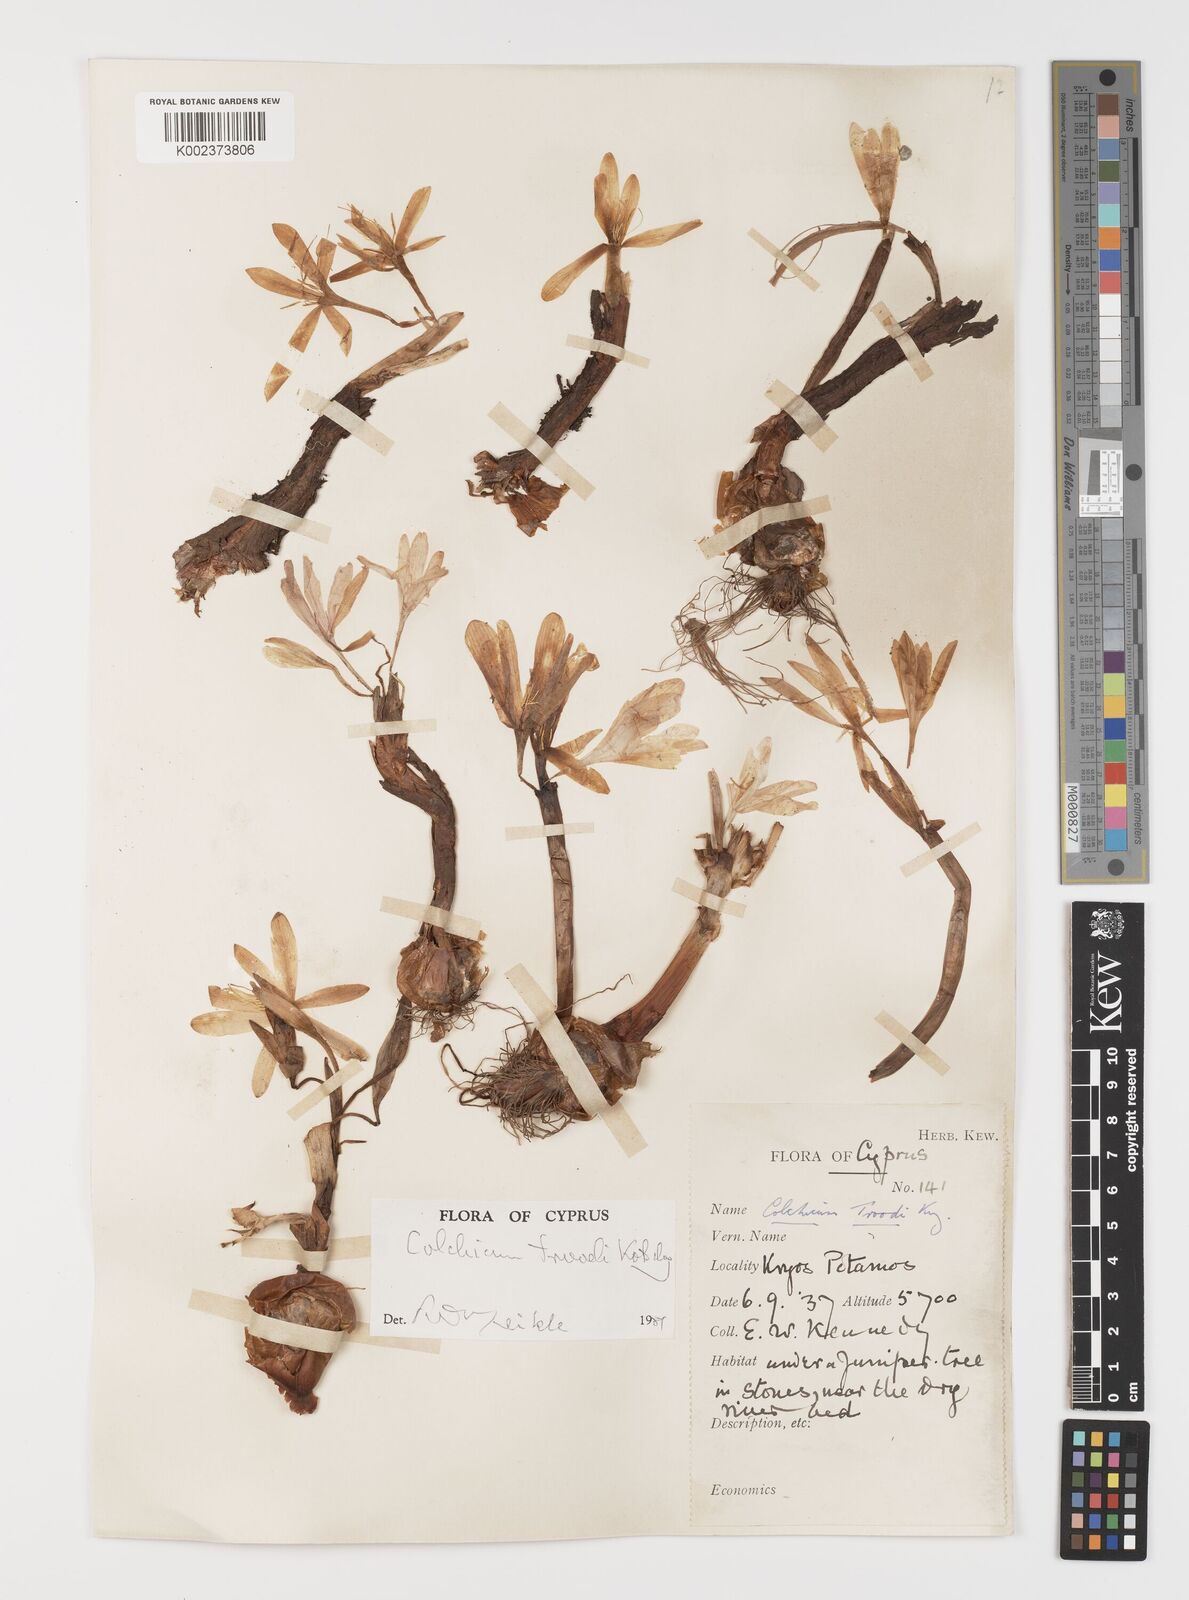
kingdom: Plantae
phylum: Tracheophyta
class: Liliopsida
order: Liliales
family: Colchicaceae
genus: Colchicum
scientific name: Colchicum troodi
